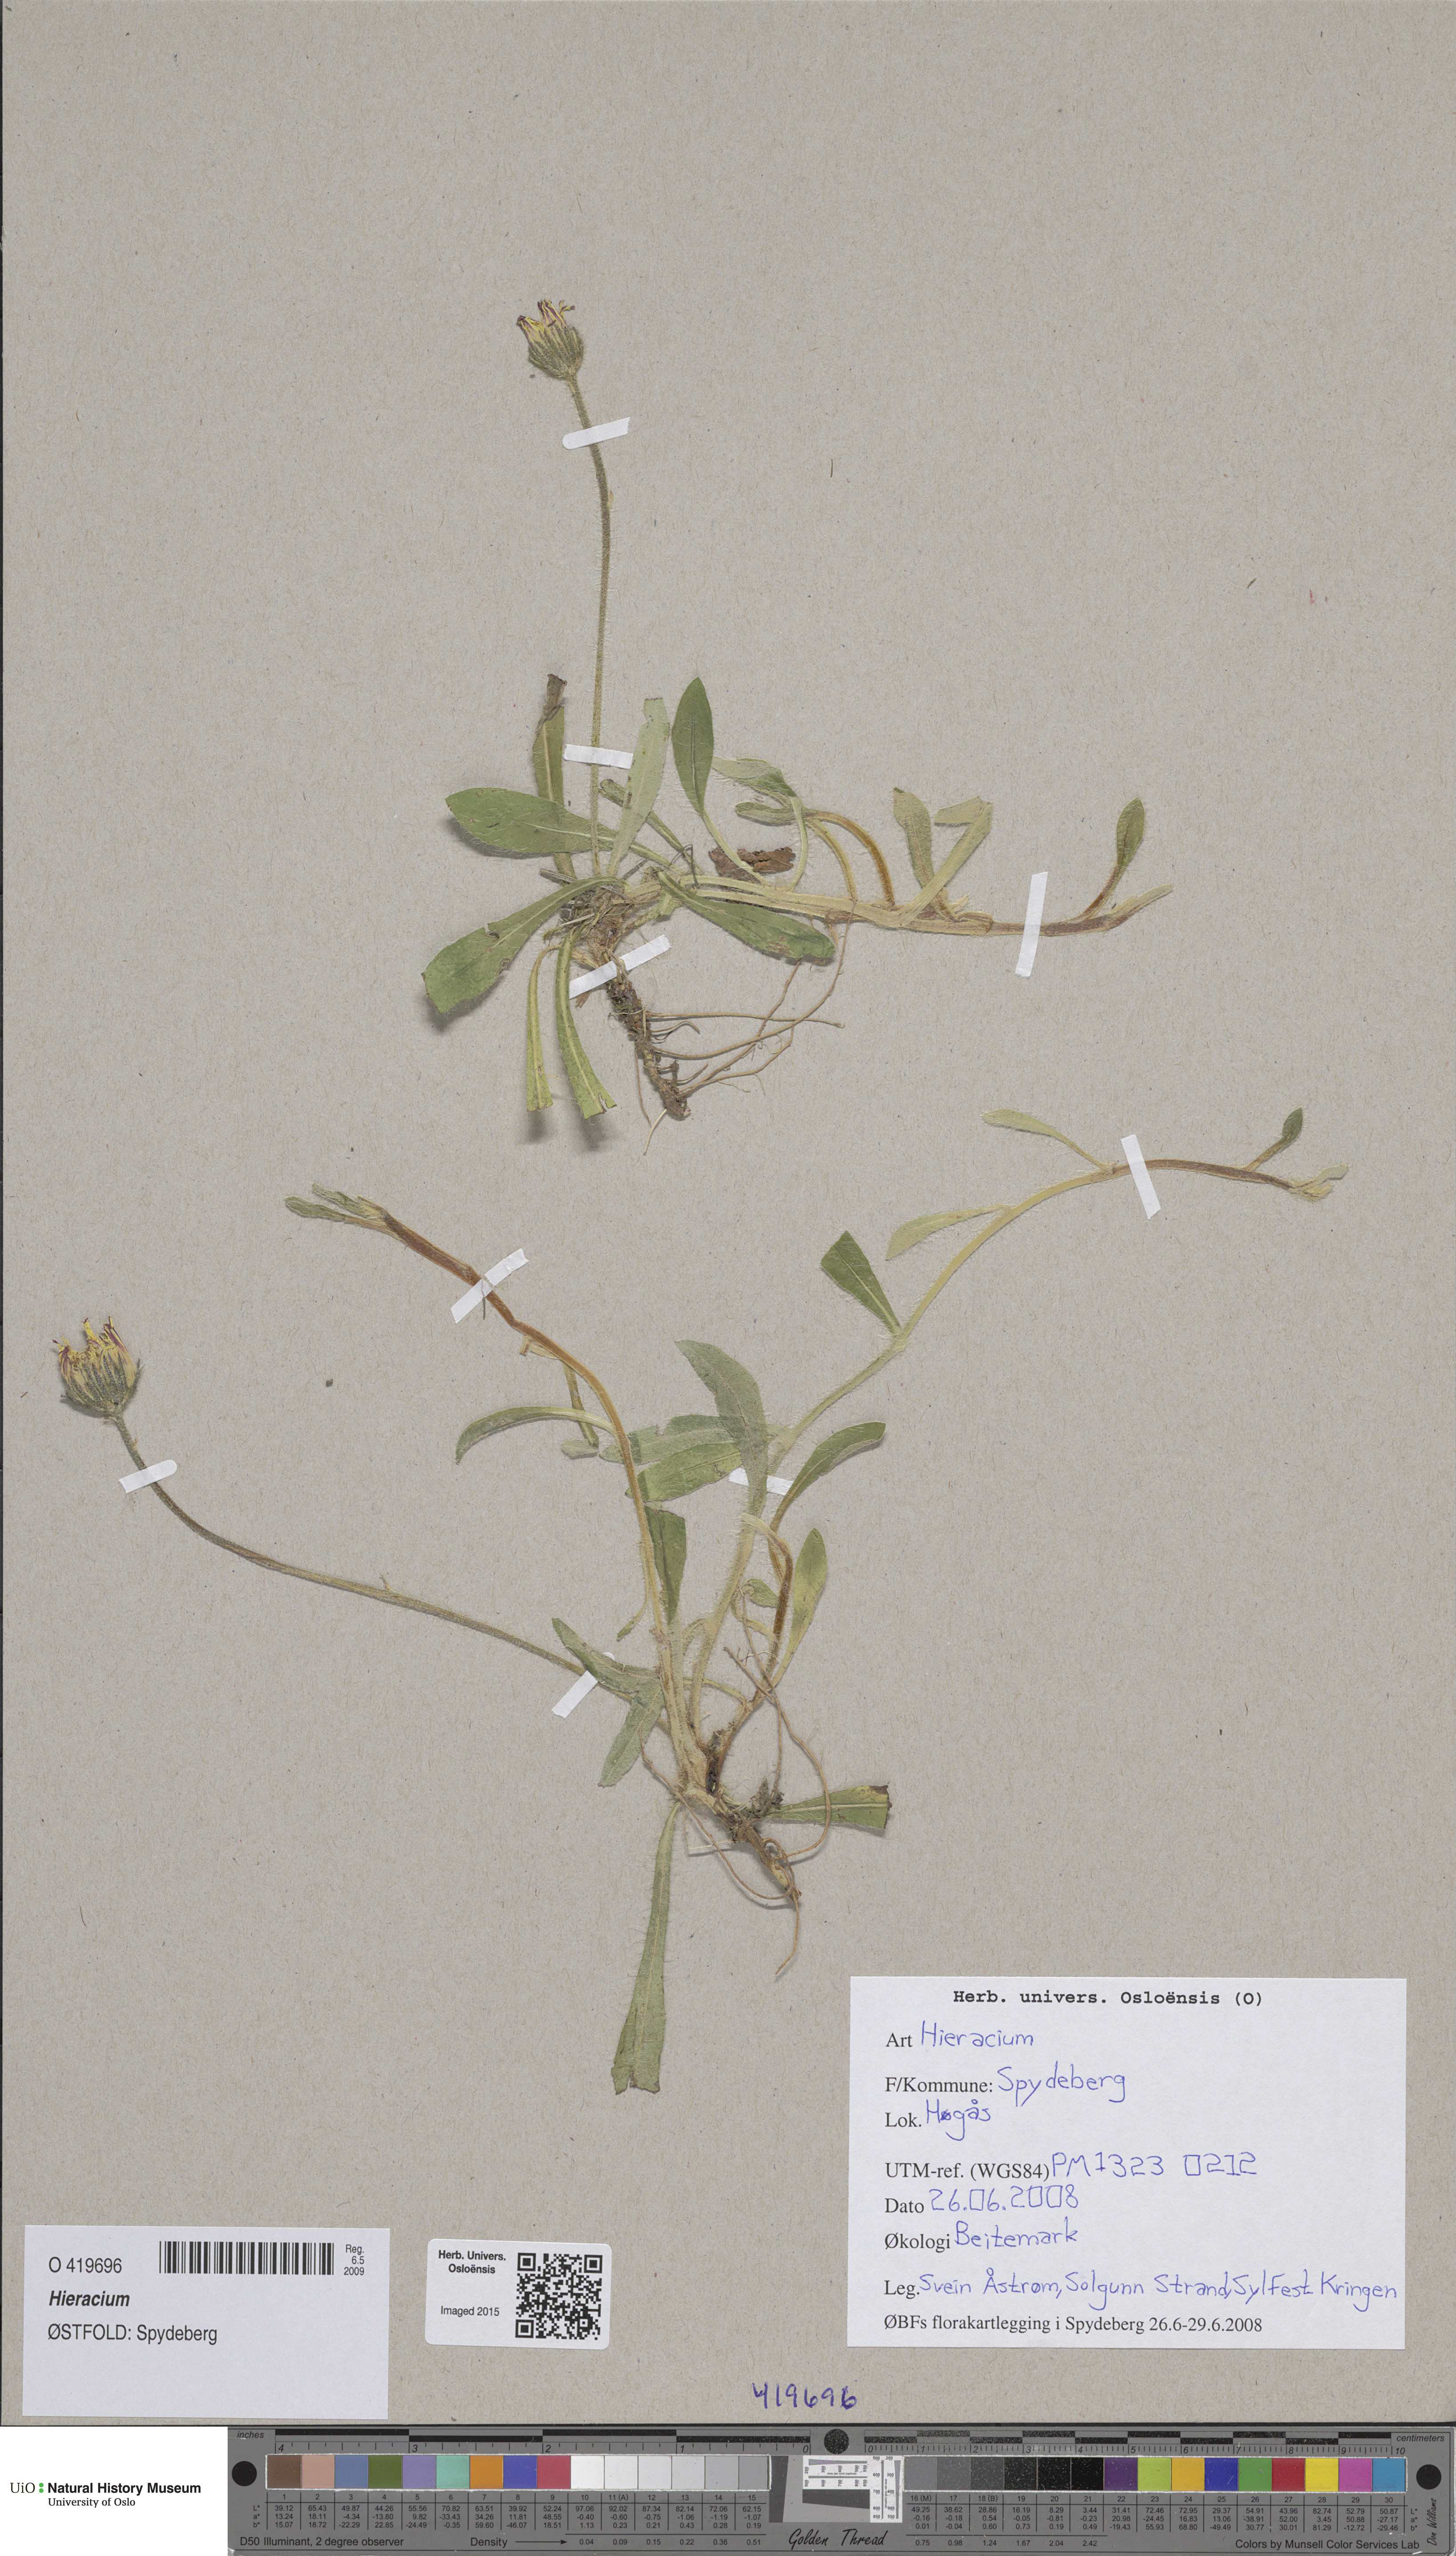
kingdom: Plantae
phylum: Tracheophyta
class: Magnoliopsida
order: Asterales
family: Asteraceae
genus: Hieracium
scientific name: Hieracium
